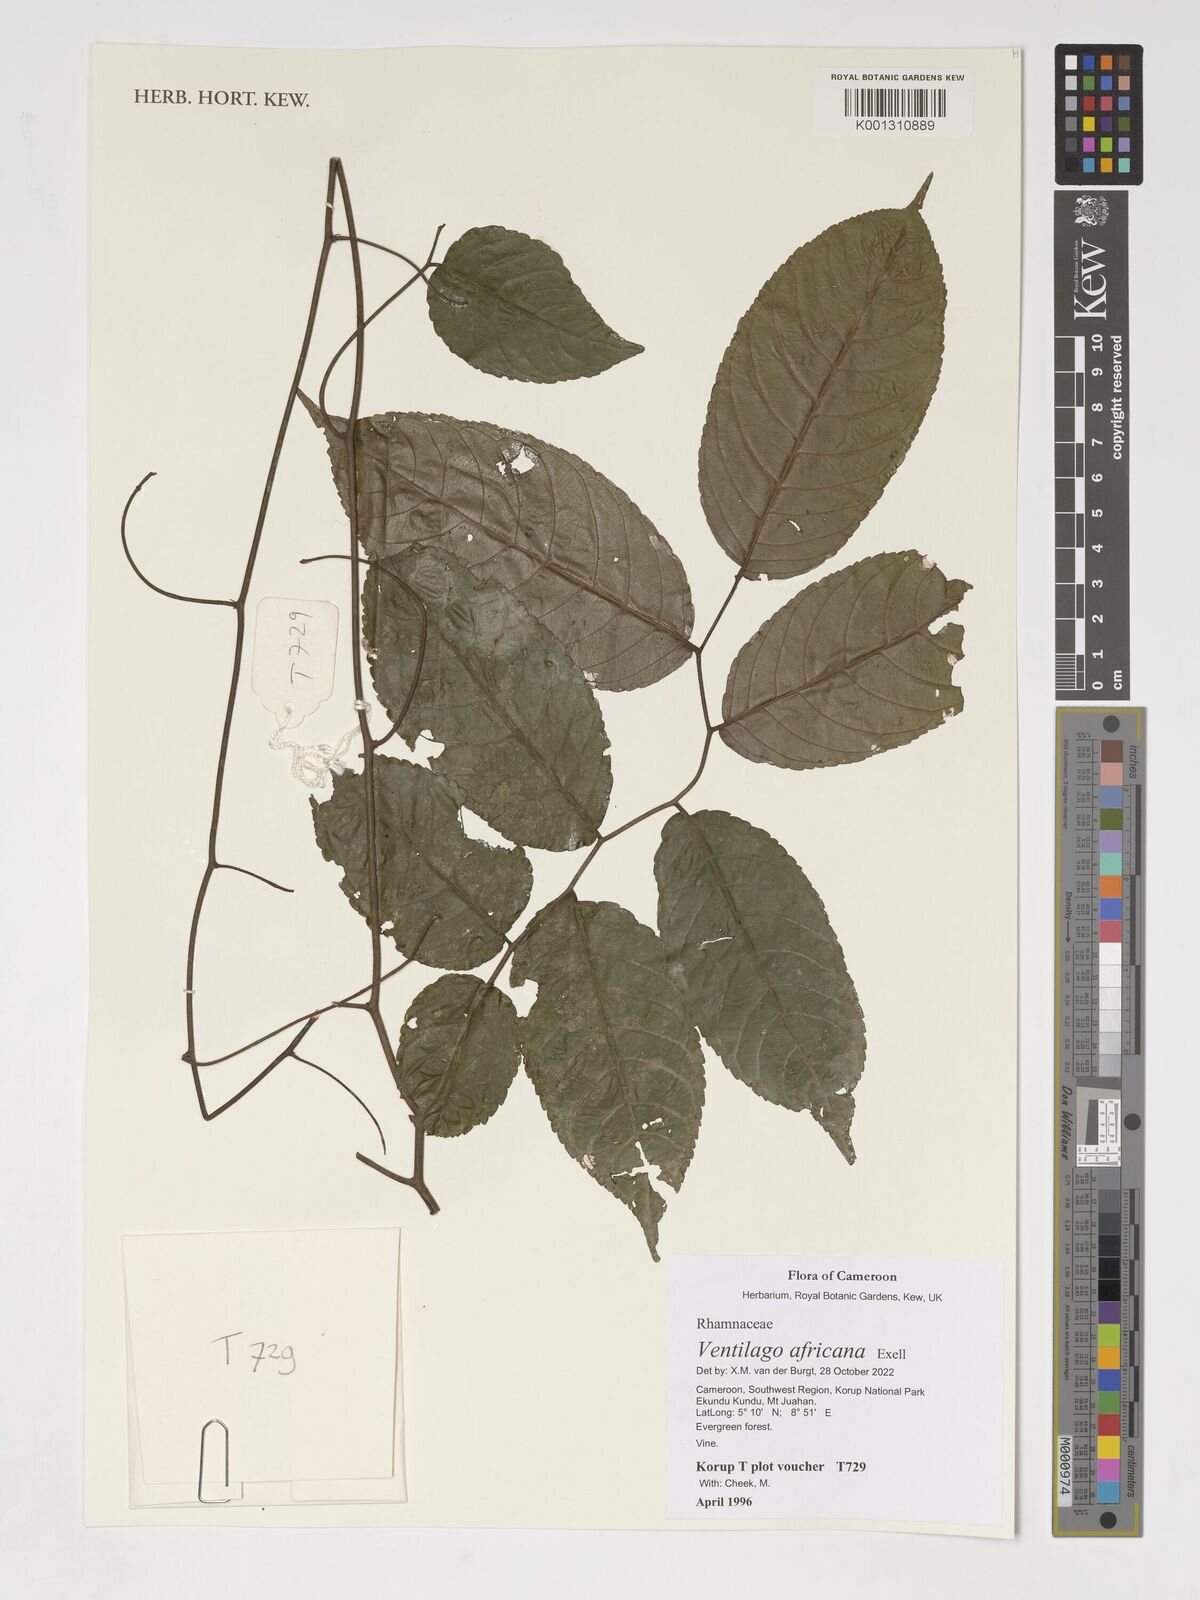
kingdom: Plantae
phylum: Tracheophyta
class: Magnoliopsida
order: Rosales
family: Rhamnaceae
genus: Ventilago
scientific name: Ventilago africana
